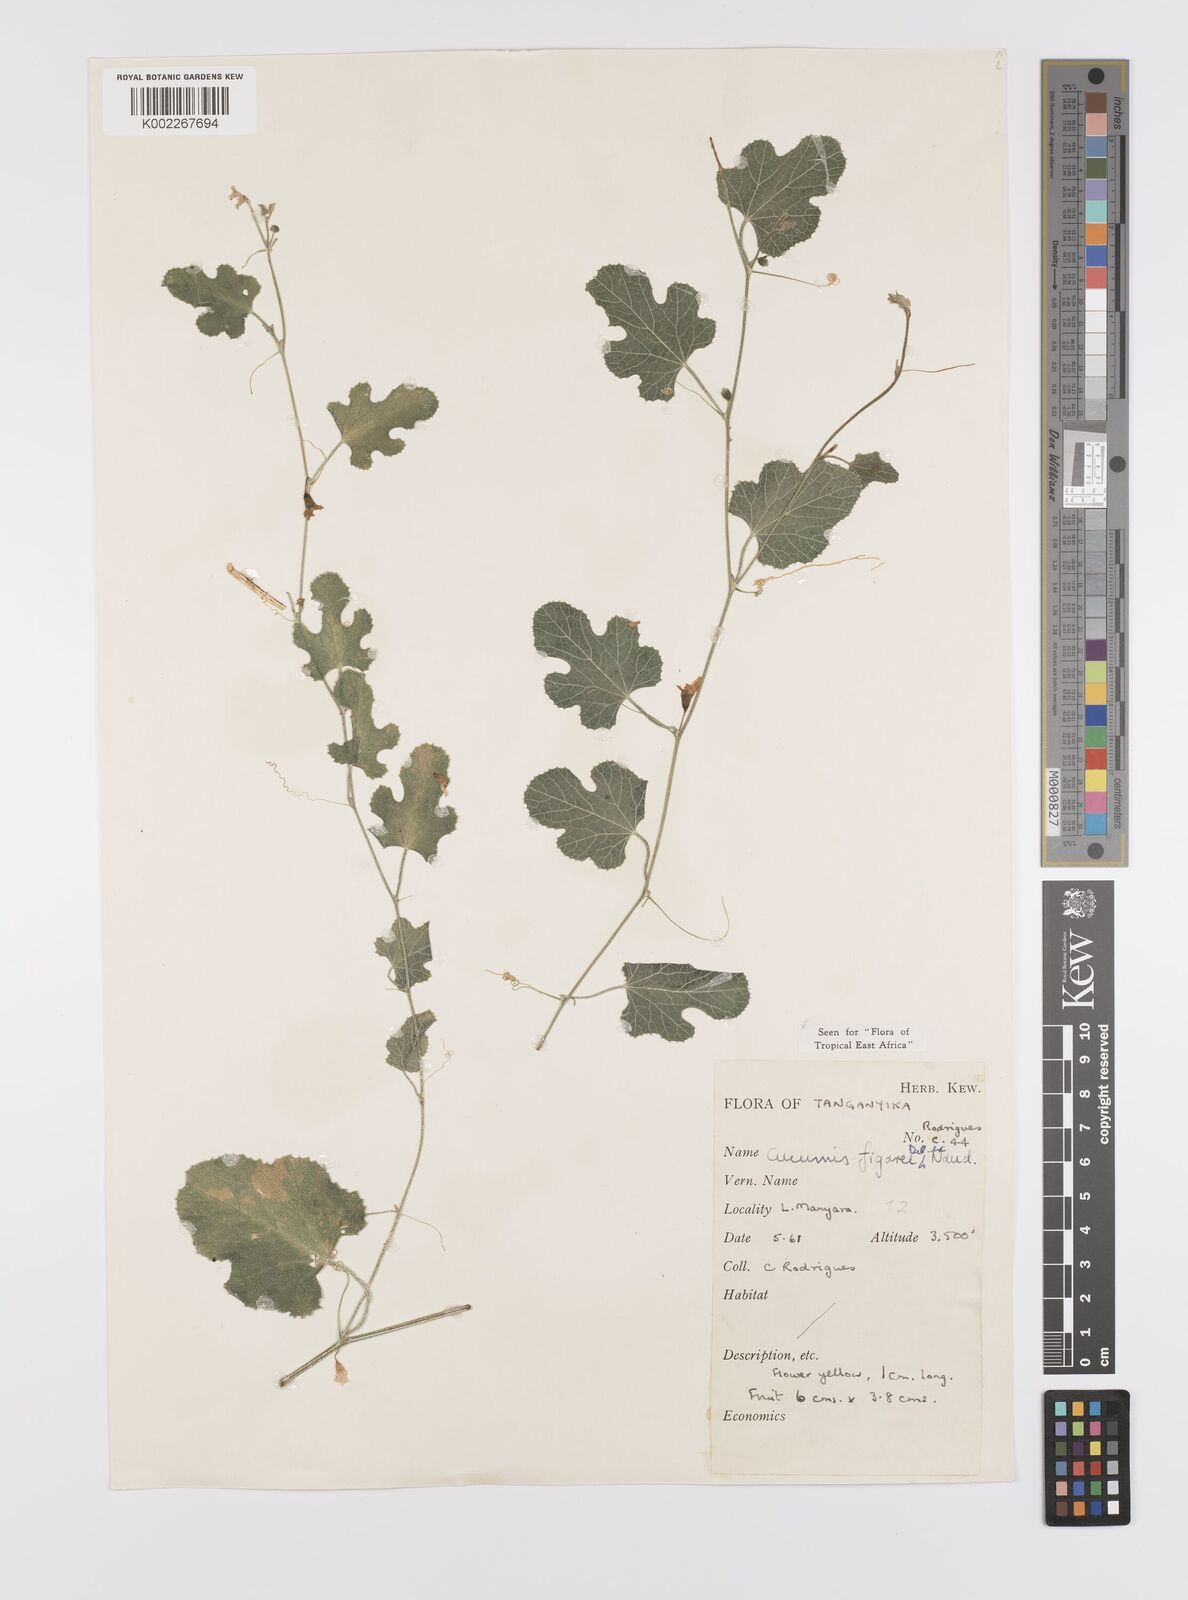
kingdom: Plantae
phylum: Tracheophyta
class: Magnoliopsida
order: Cucurbitales
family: Cucurbitaceae
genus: Cucumis
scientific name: Cucumis
